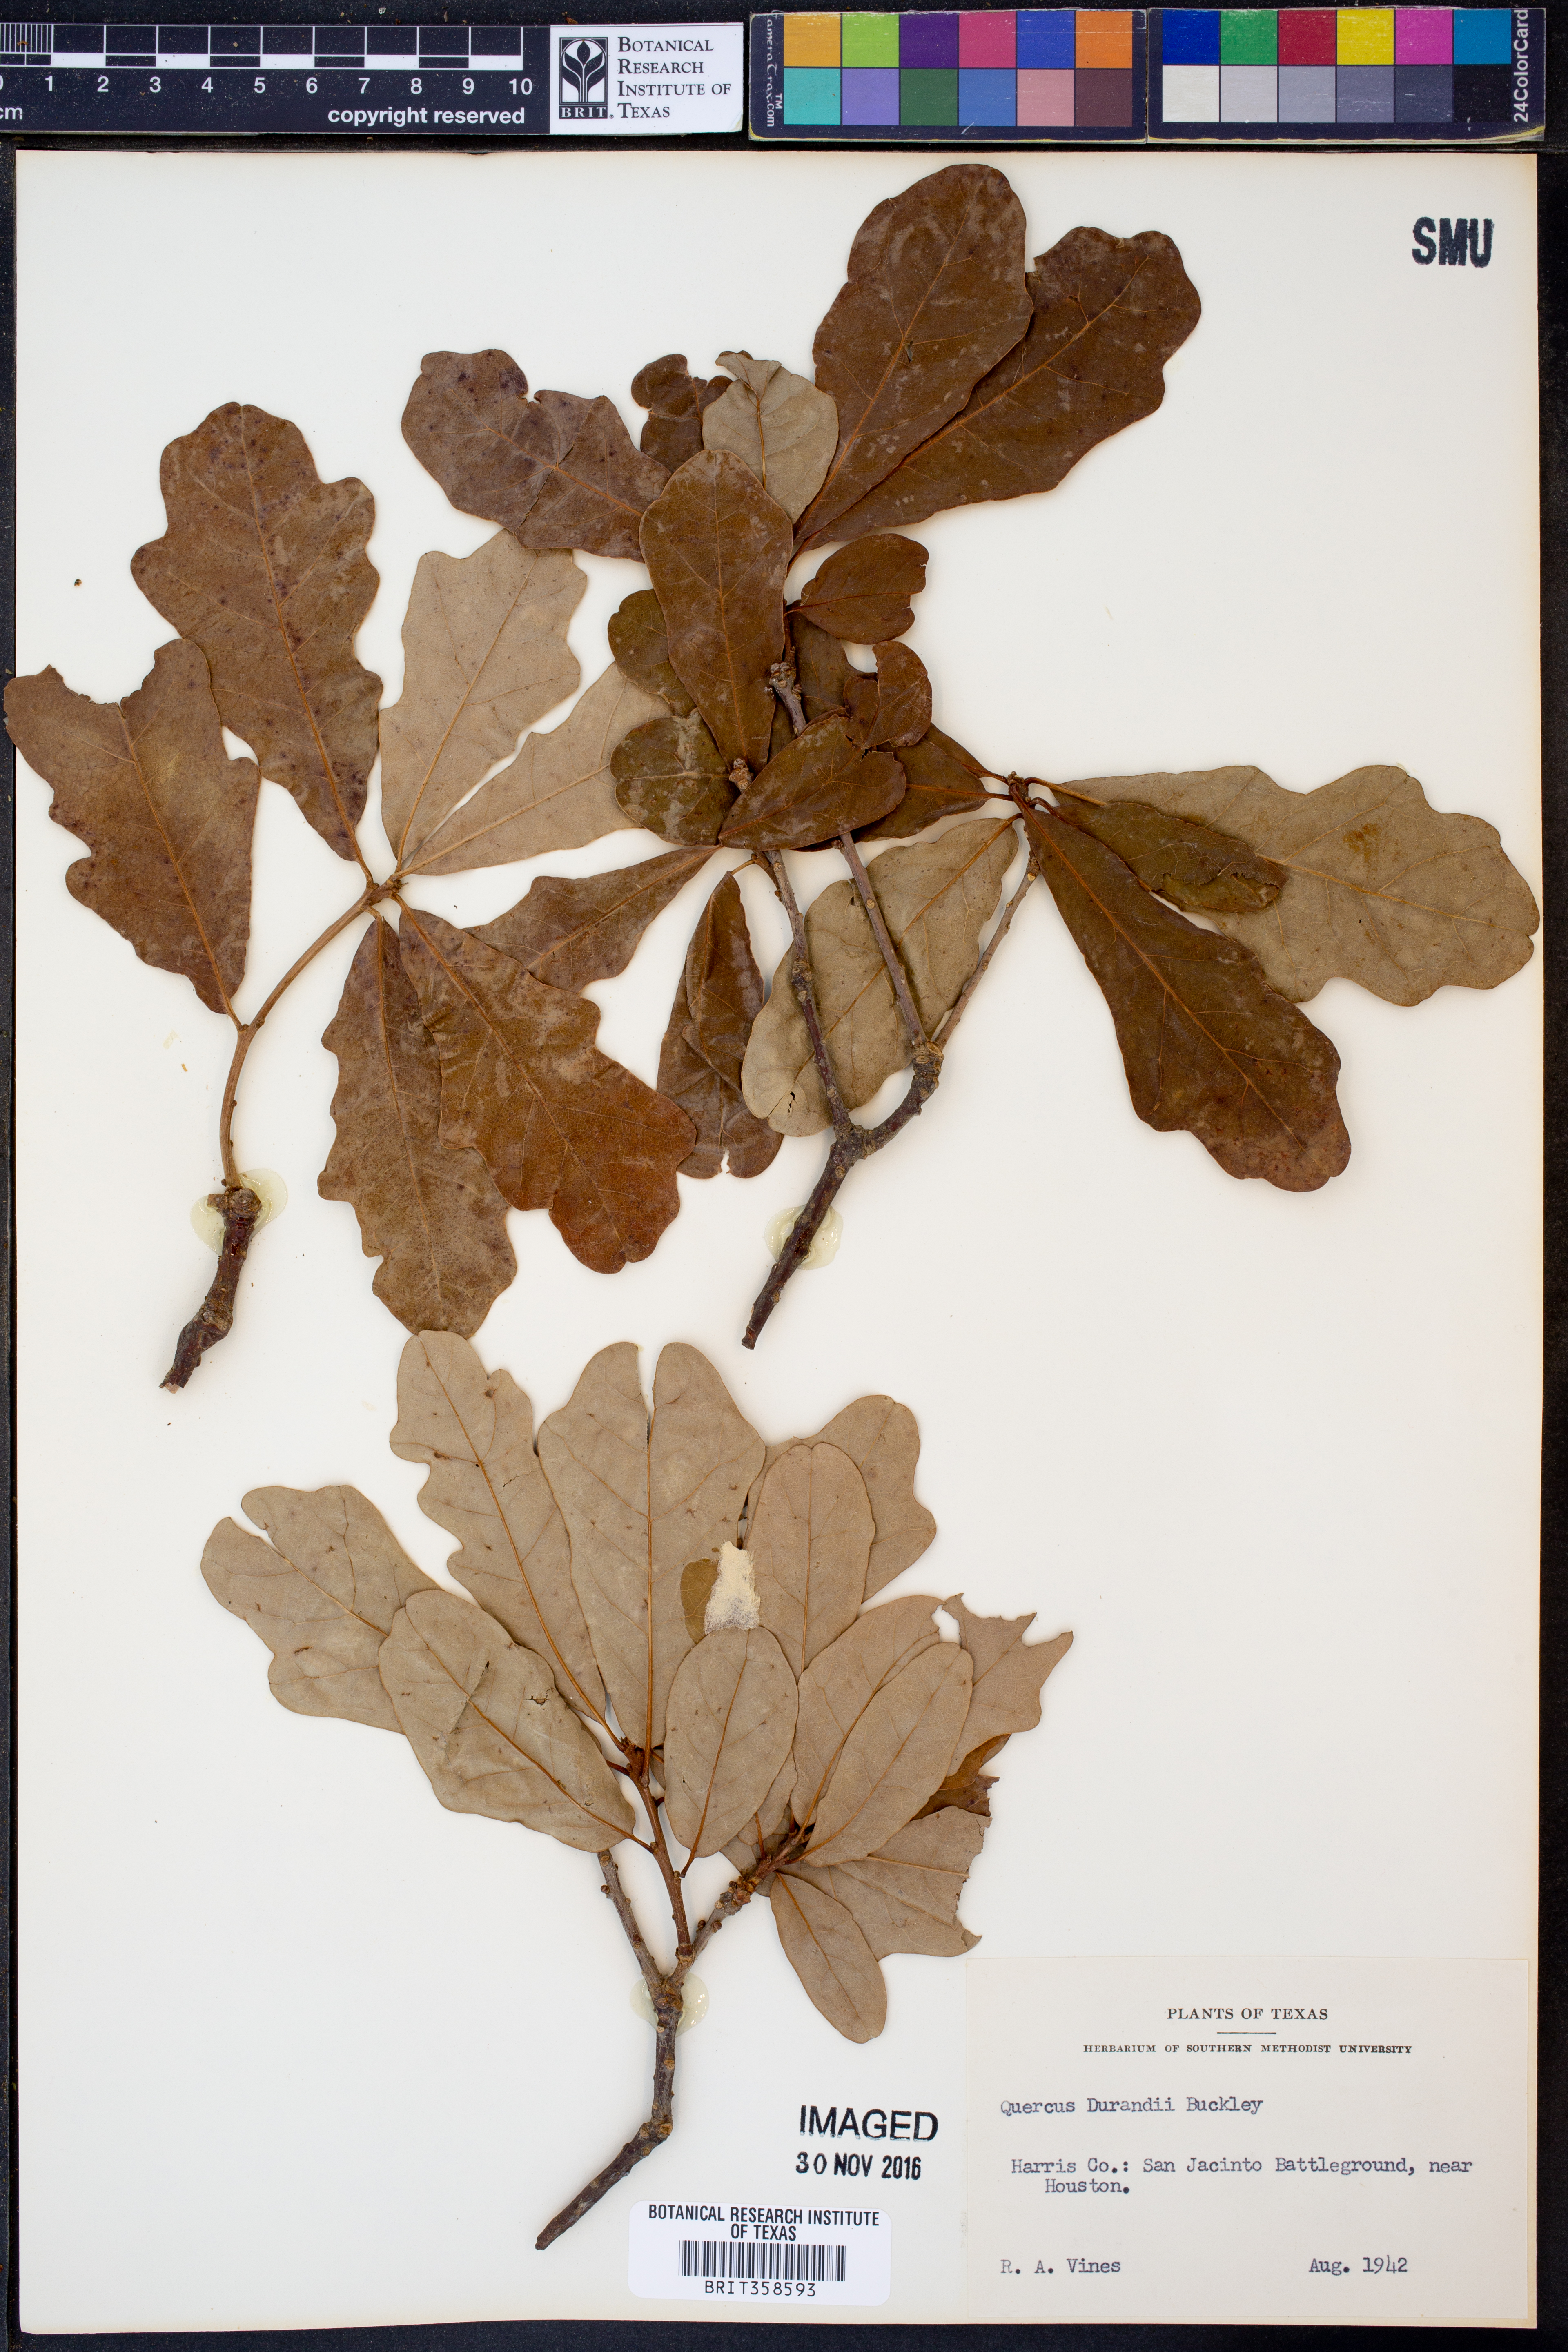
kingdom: Plantae
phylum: Tracheophyta
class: Magnoliopsida
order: Fagales
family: Fagaceae
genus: Quercus
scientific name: Quercus sinuata
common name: Durand oak
